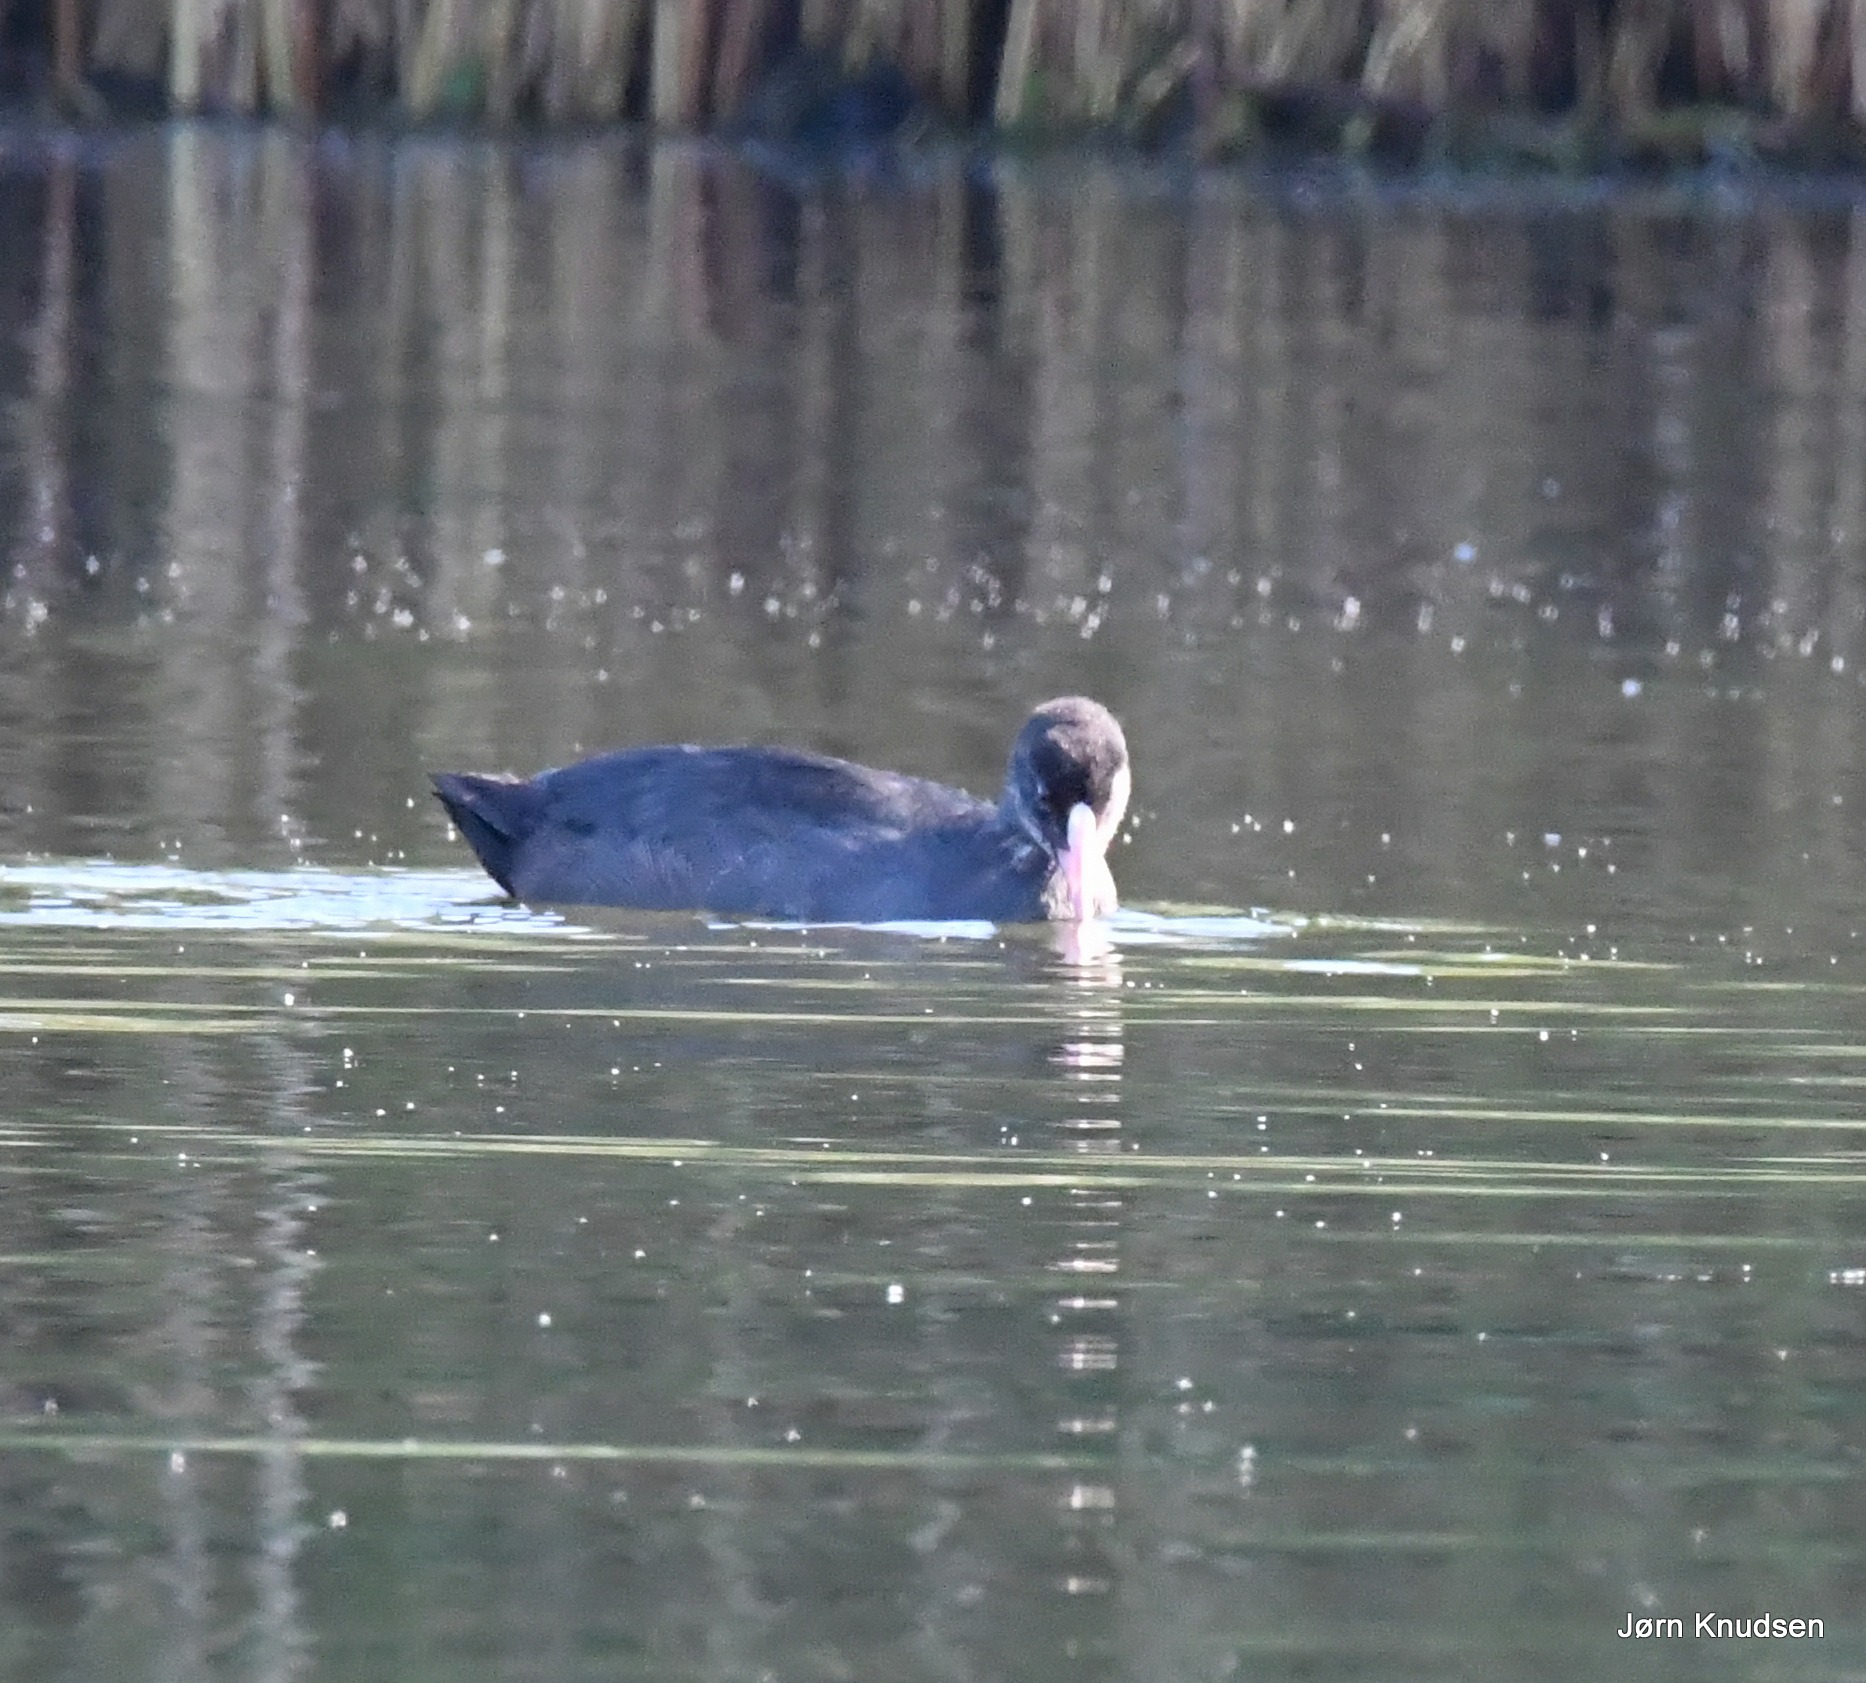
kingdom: Animalia
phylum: Chordata
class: Aves
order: Gruiformes
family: Rallidae
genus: Fulica
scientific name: Fulica atra
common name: Blishøne
